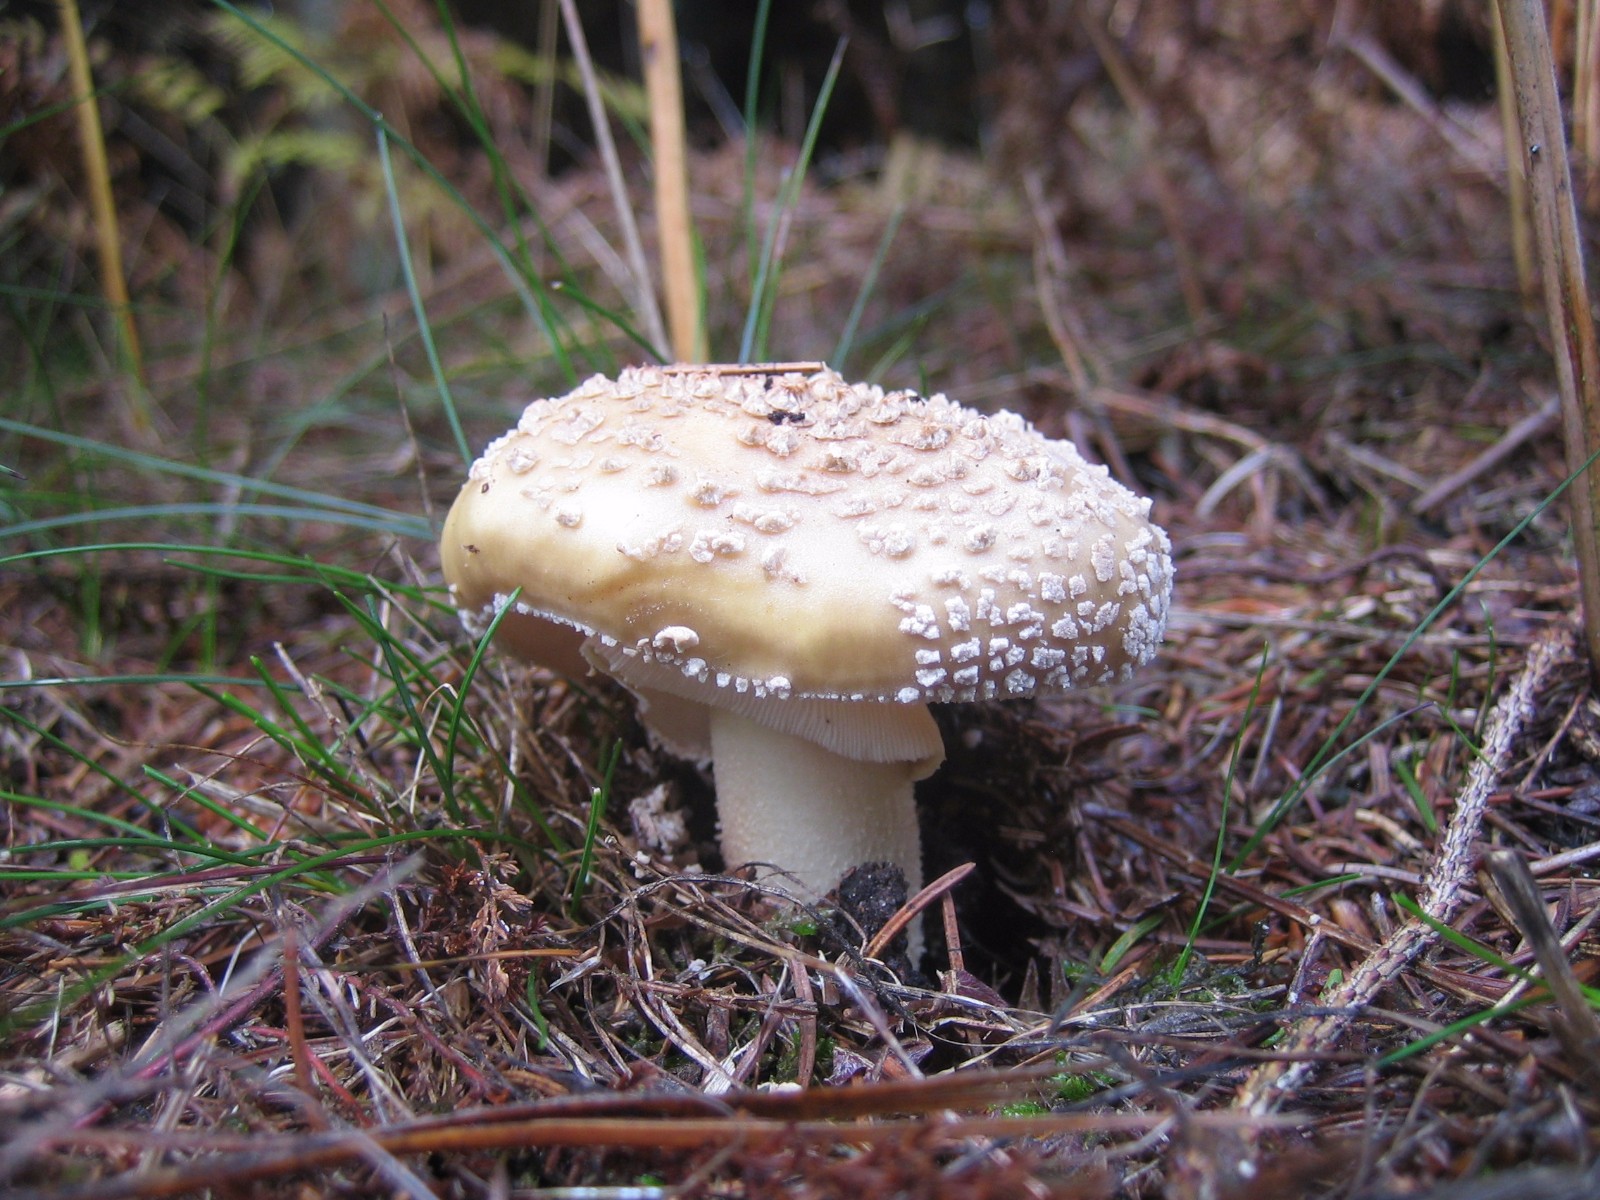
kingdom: Fungi
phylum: Basidiomycota
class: Agaricomycetes
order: Agaricales
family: Amanitaceae
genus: Amanita
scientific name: Amanita
